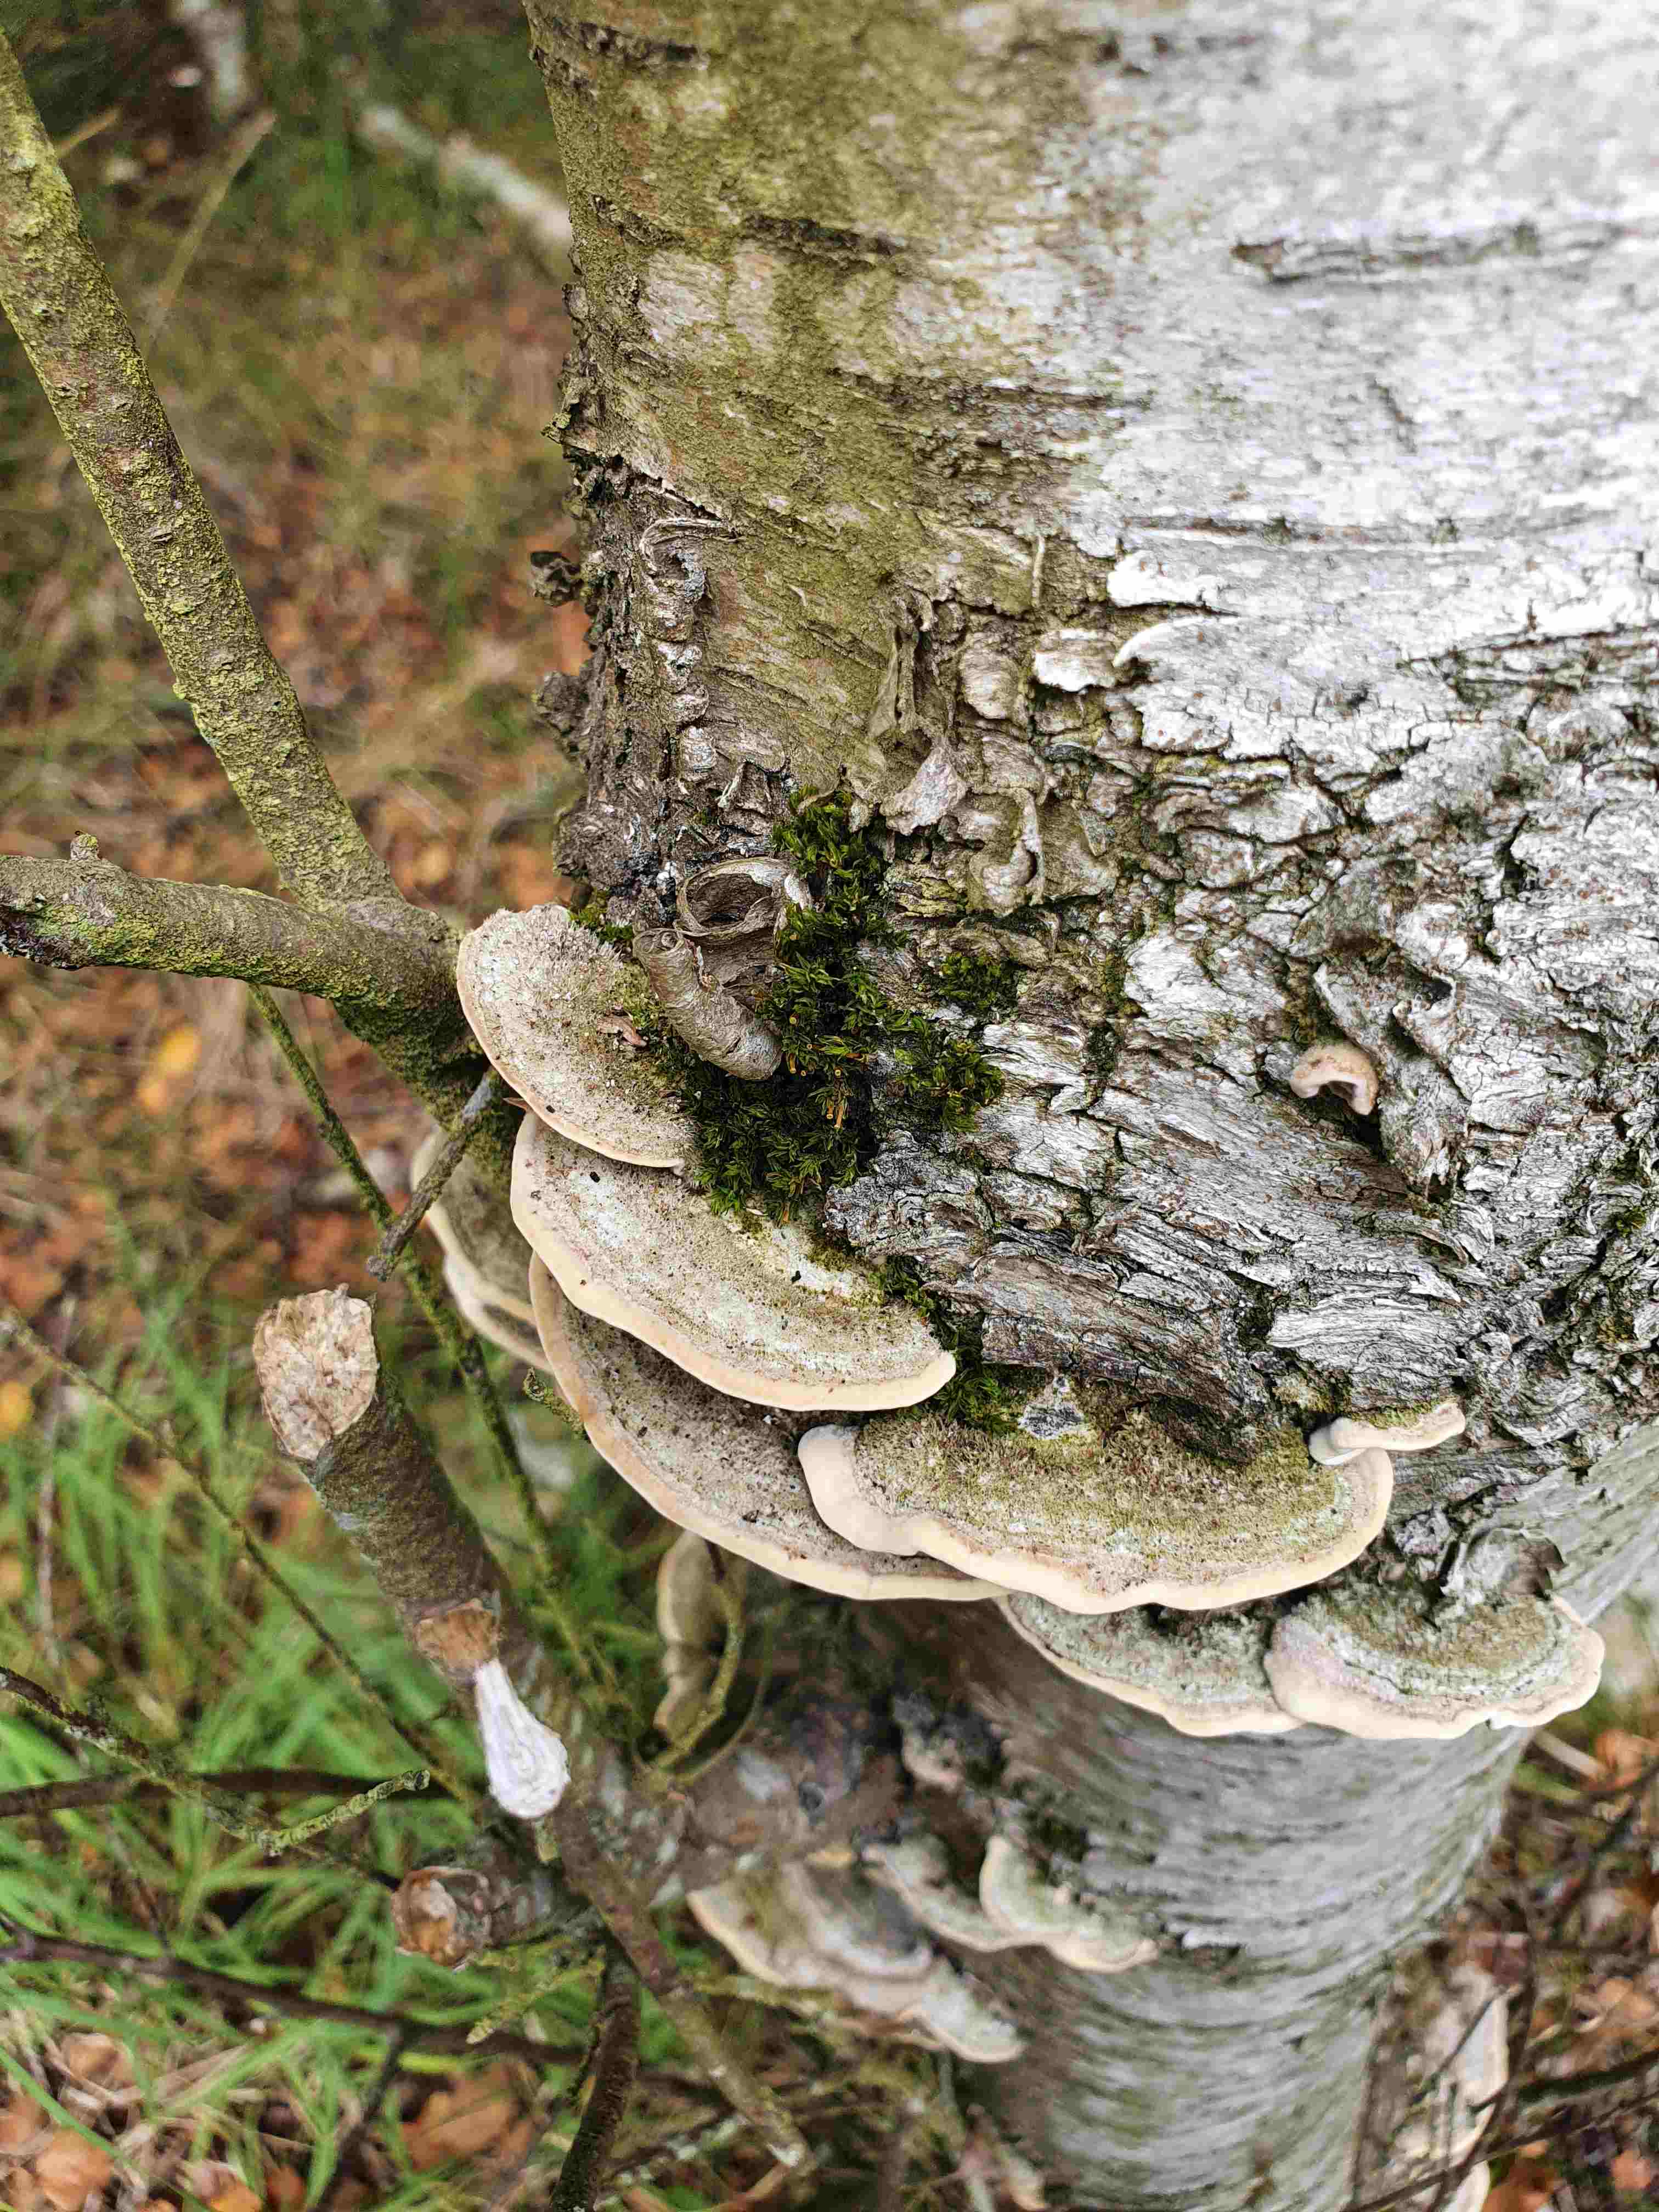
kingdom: Fungi
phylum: Basidiomycota
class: Agaricomycetes
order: Polyporales
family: Cerrenaceae
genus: Cerrena
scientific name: Cerrena unicolor
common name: ensfarvet læderporesvamp
